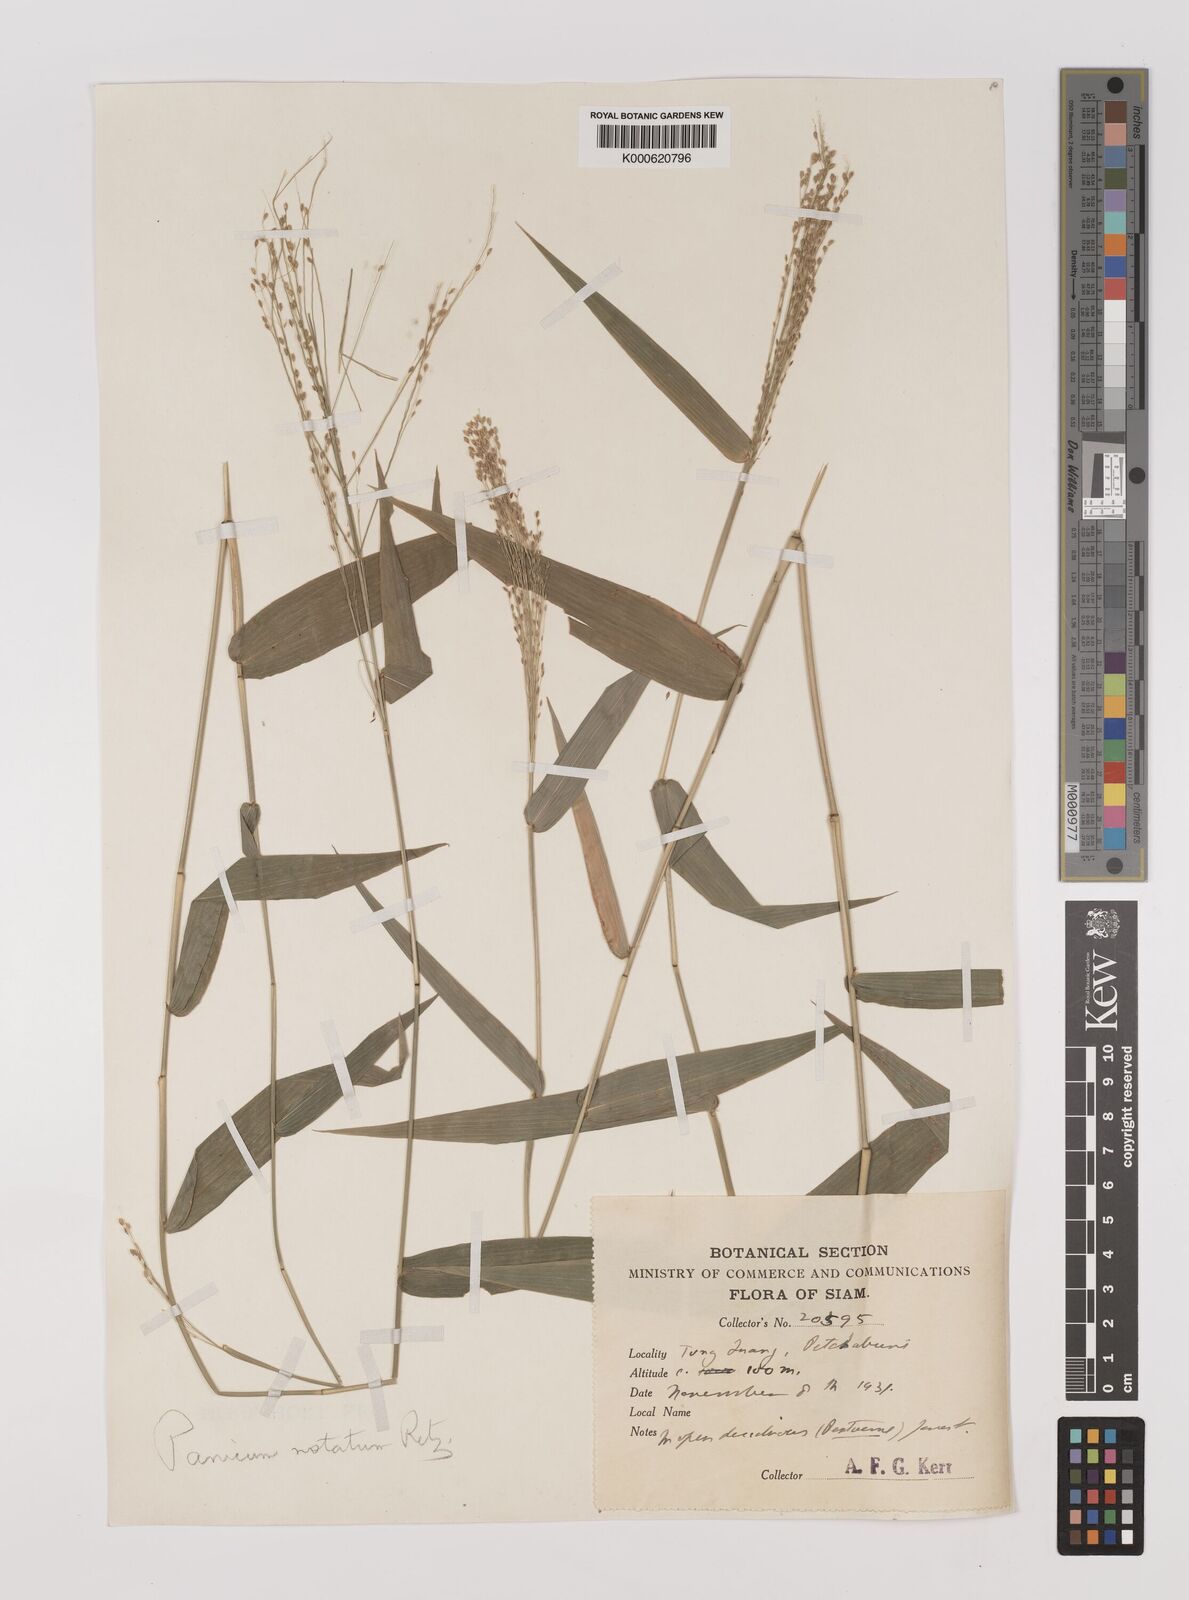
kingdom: Plantae
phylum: Tracheophyta
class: Liliopsida
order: Poales
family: Poaceae
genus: Panicum
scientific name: Panicum notatum
